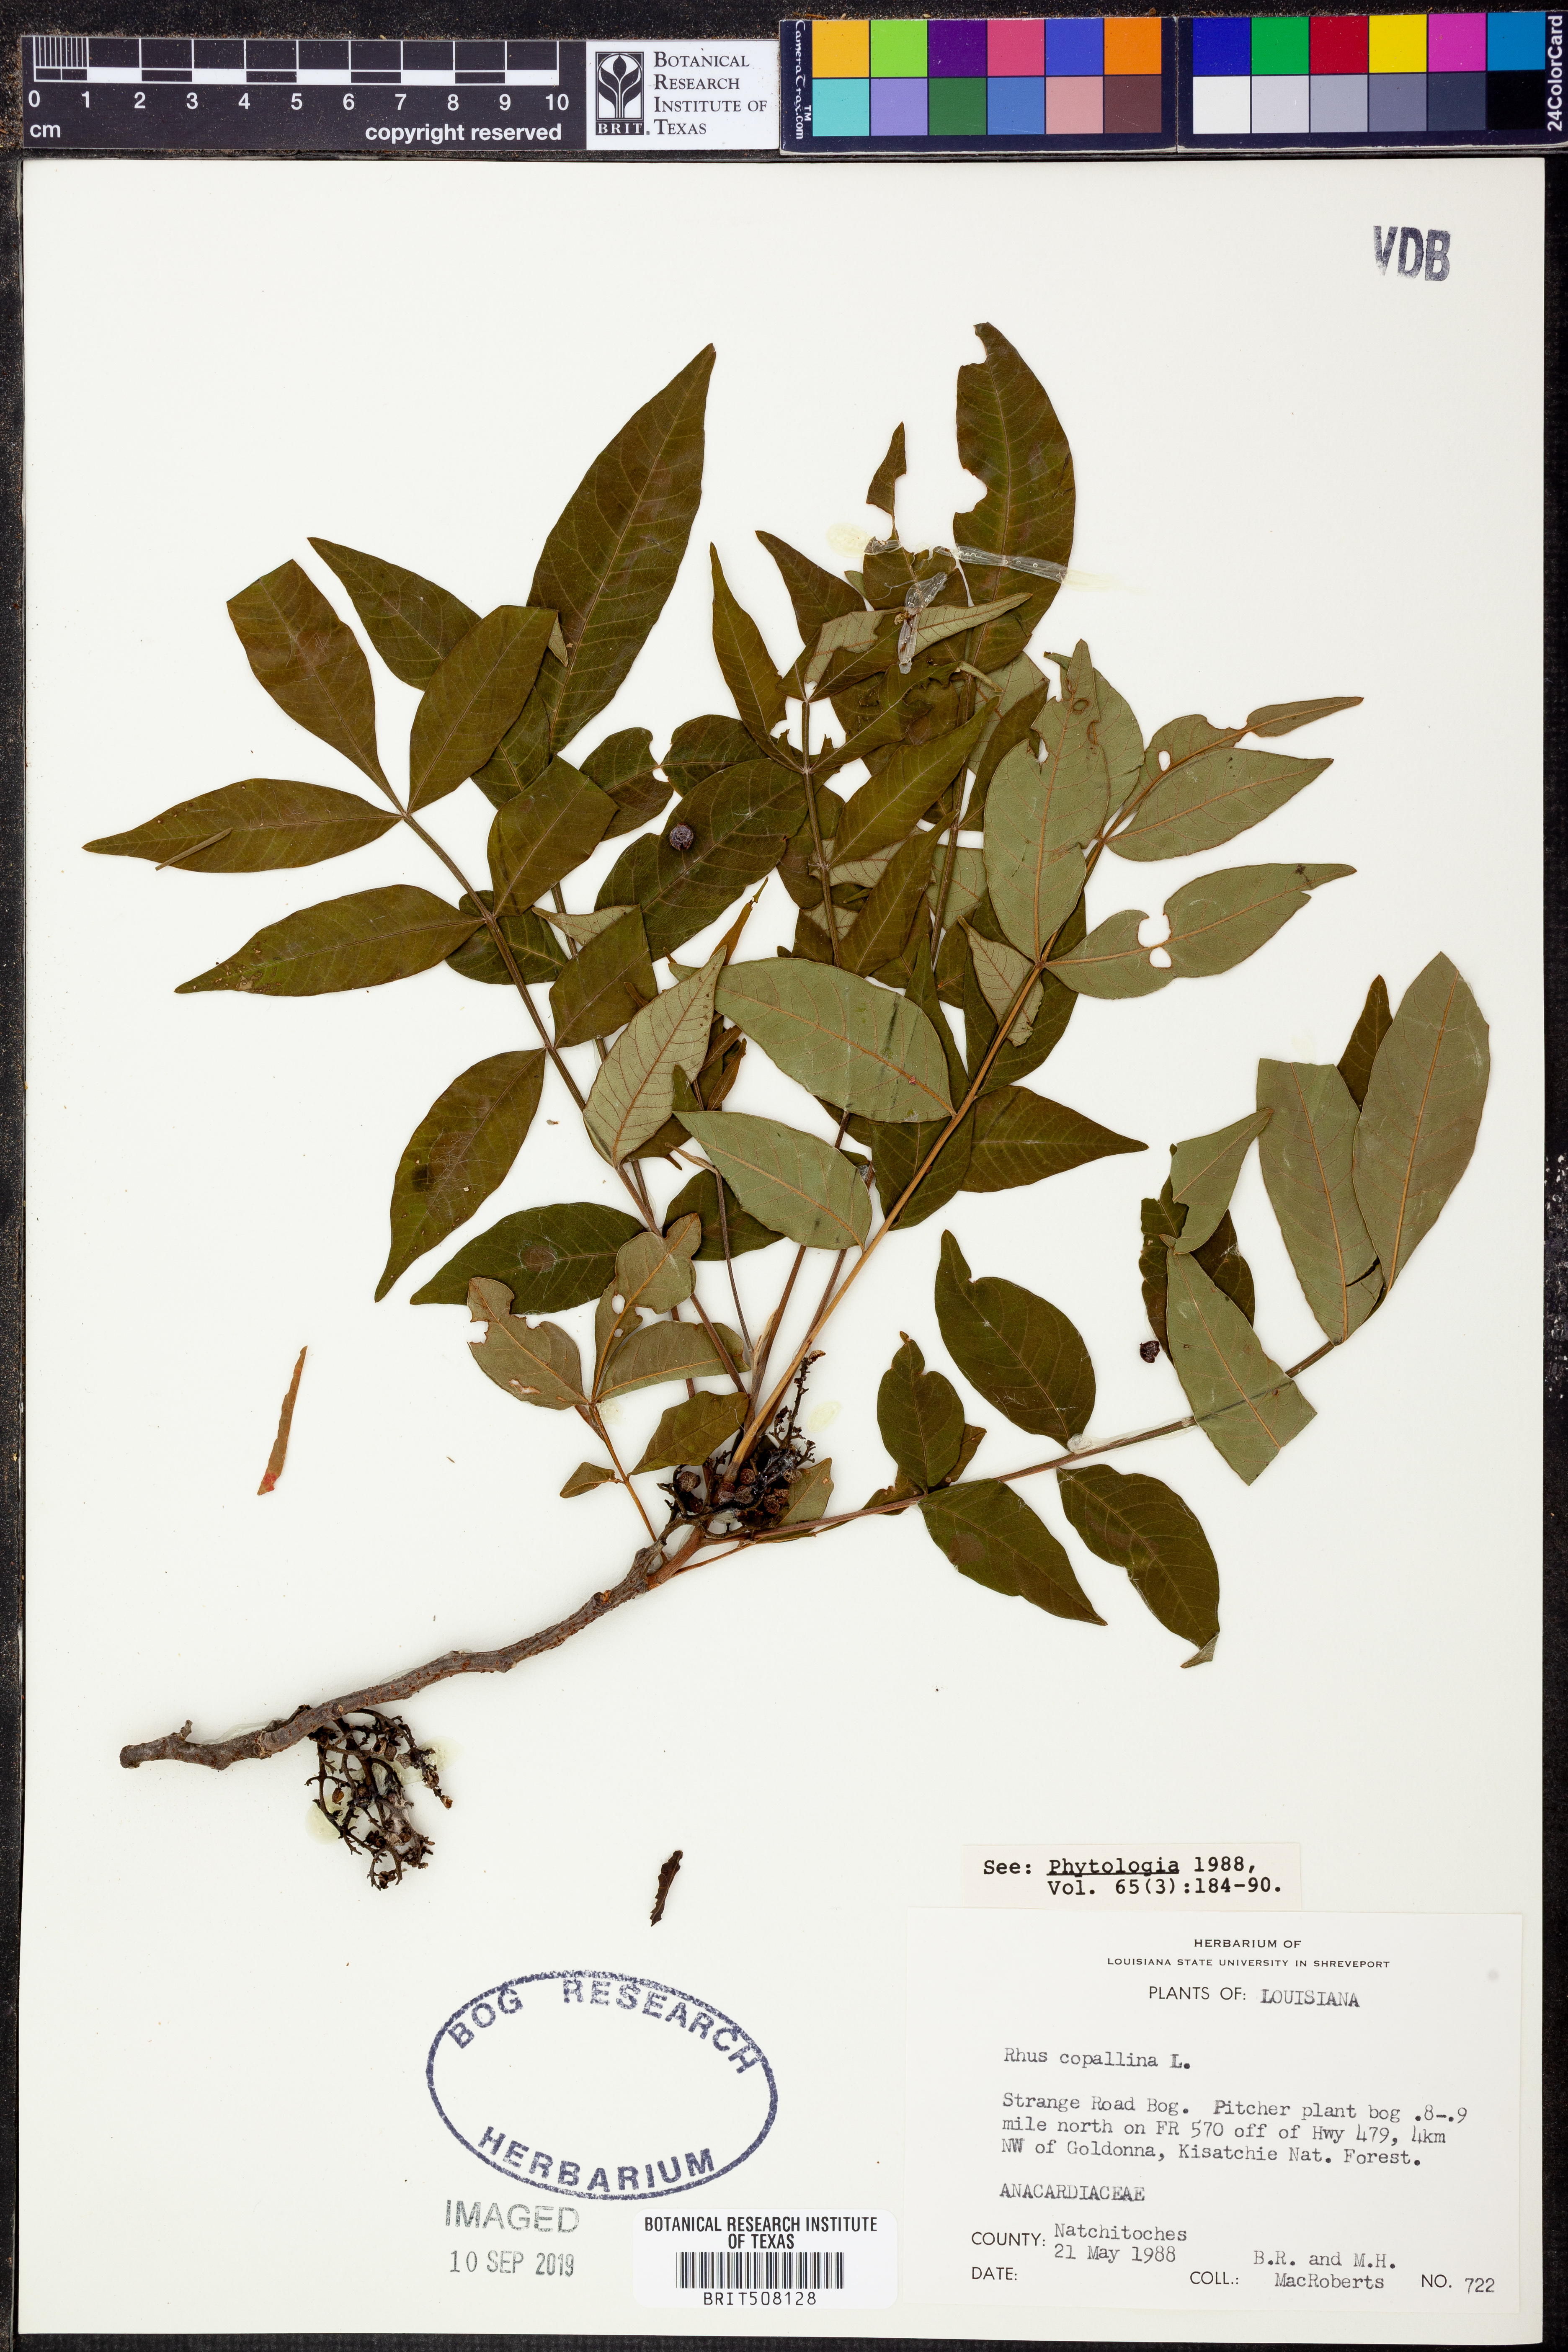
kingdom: Plantae
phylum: Tracheophyta
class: Magnoliopsida
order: Sapindales
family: Anacardiaceae
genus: Rhus
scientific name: Rhus copallina
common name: Shining sumac
